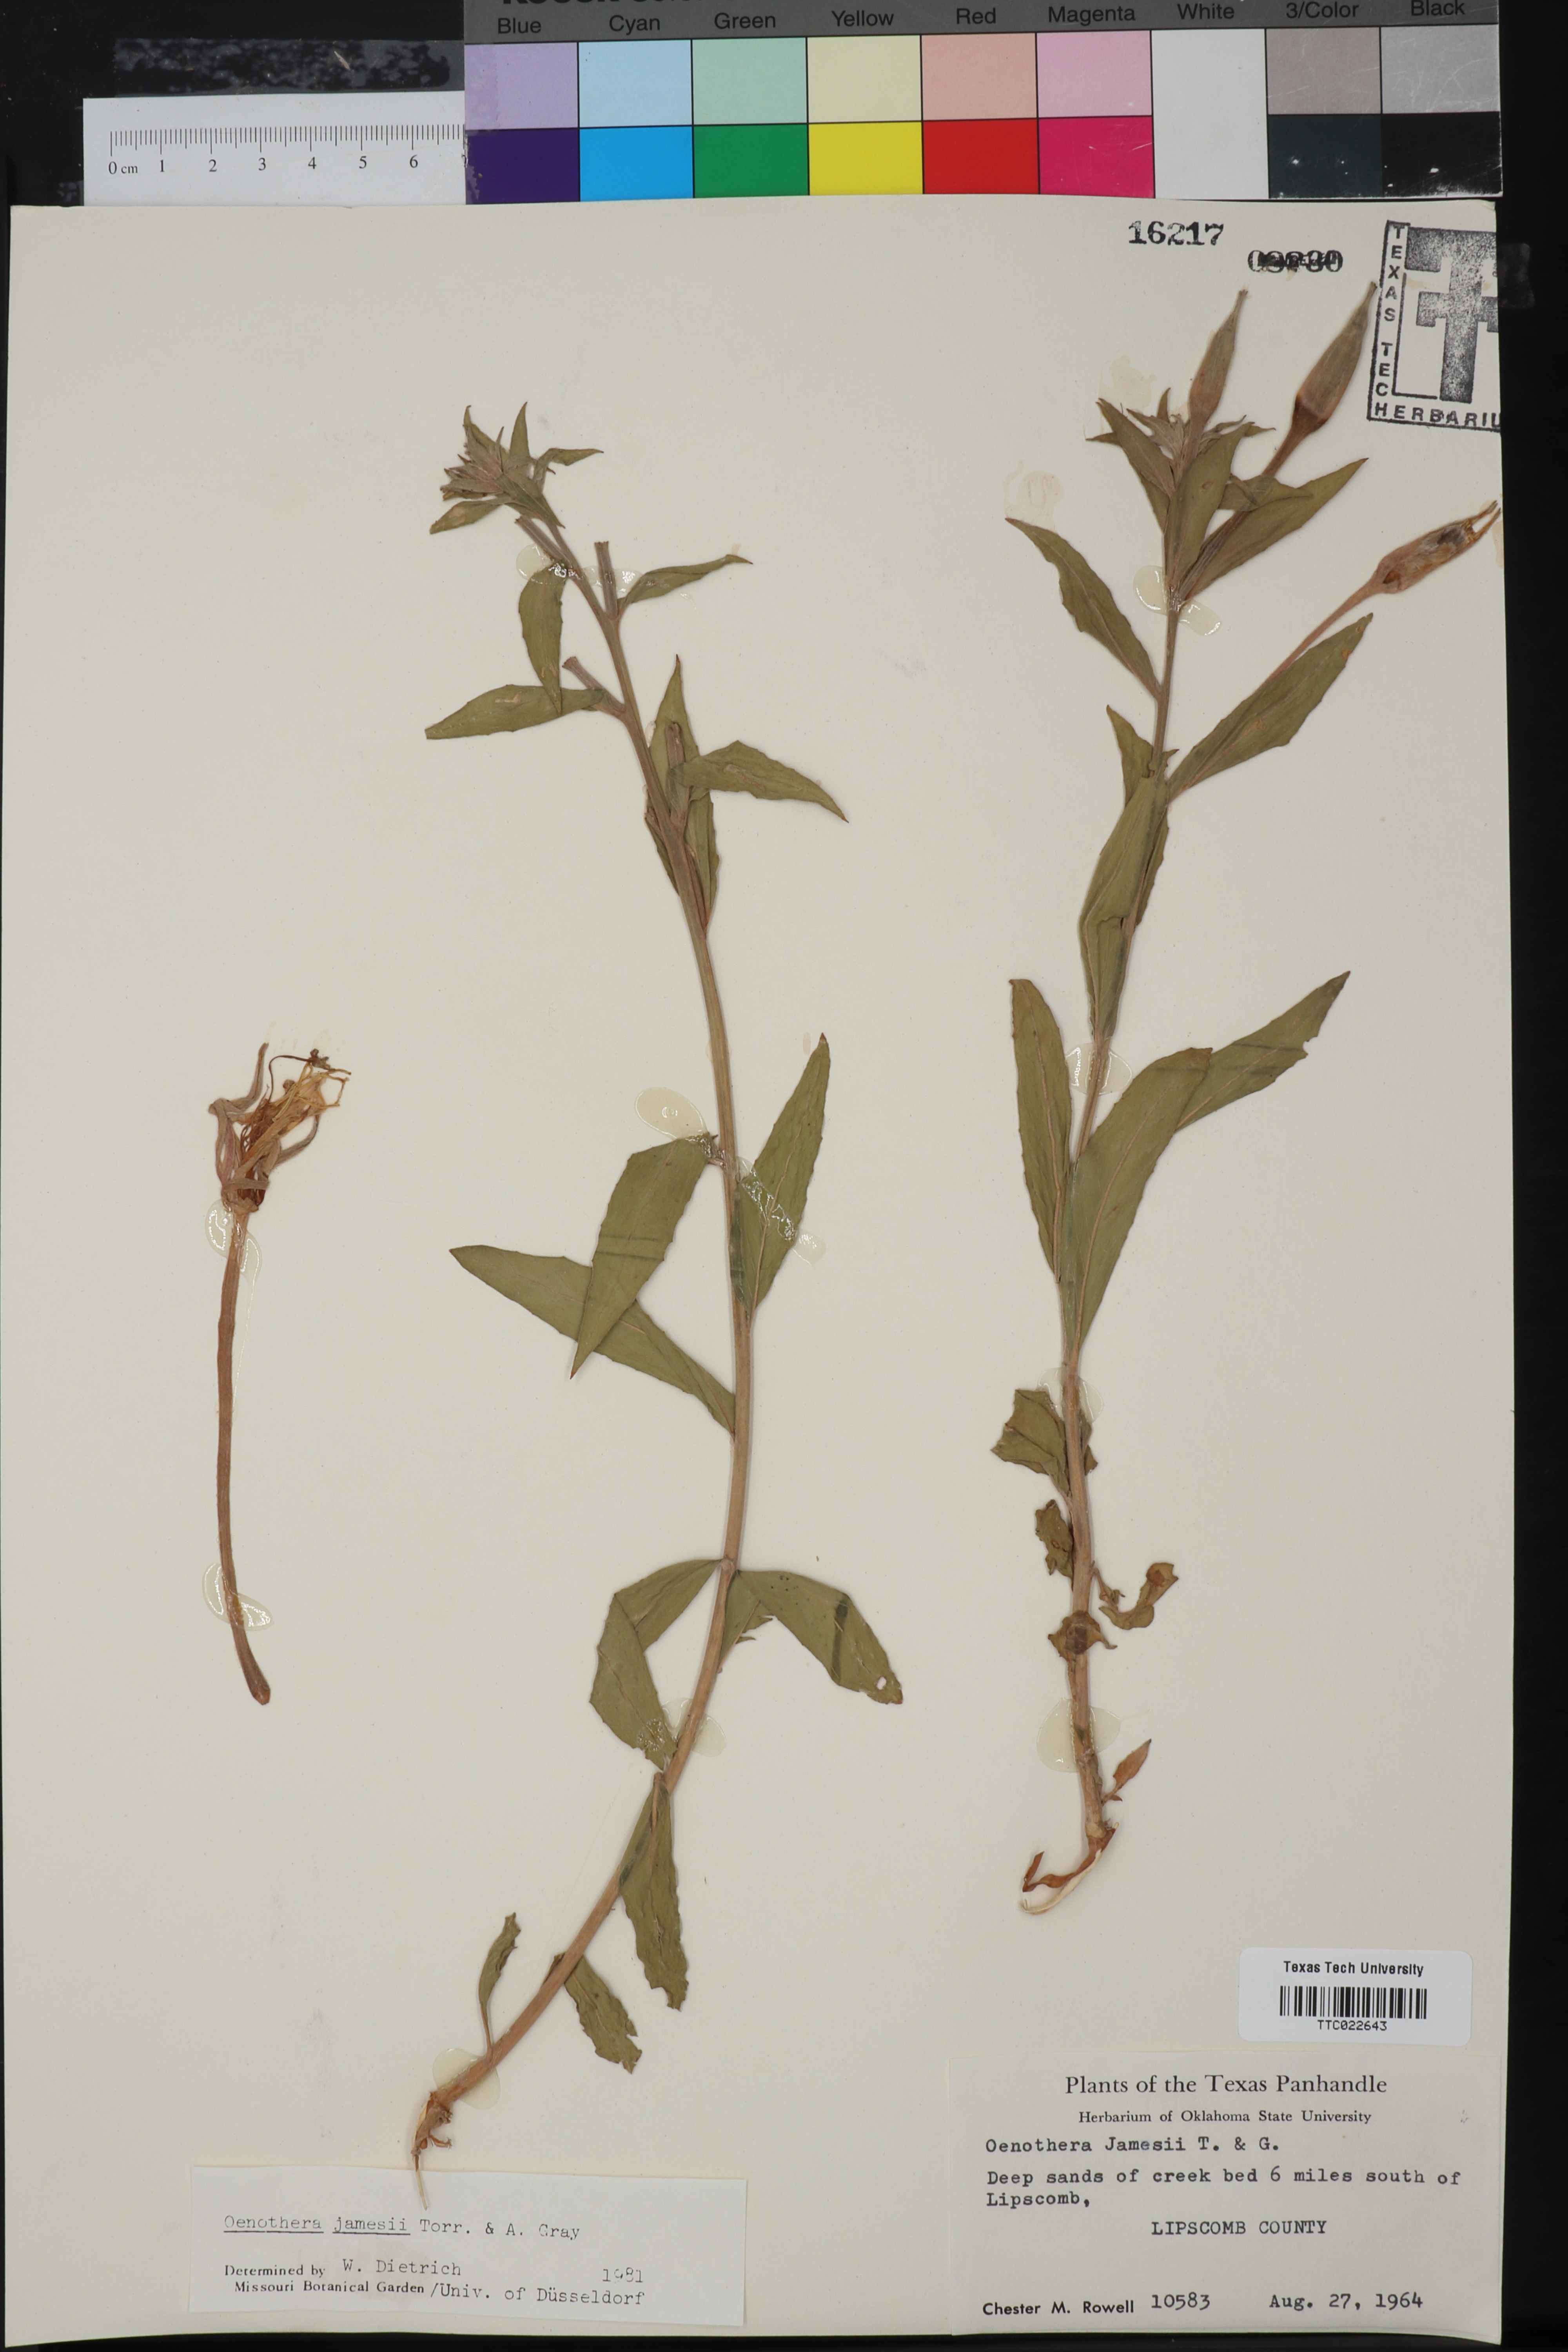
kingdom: Plantae
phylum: Tracheophyta
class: Magnoliopsida
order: Myrtales
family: Onagraceae
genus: Oenothera
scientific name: Oenothera jamesii
